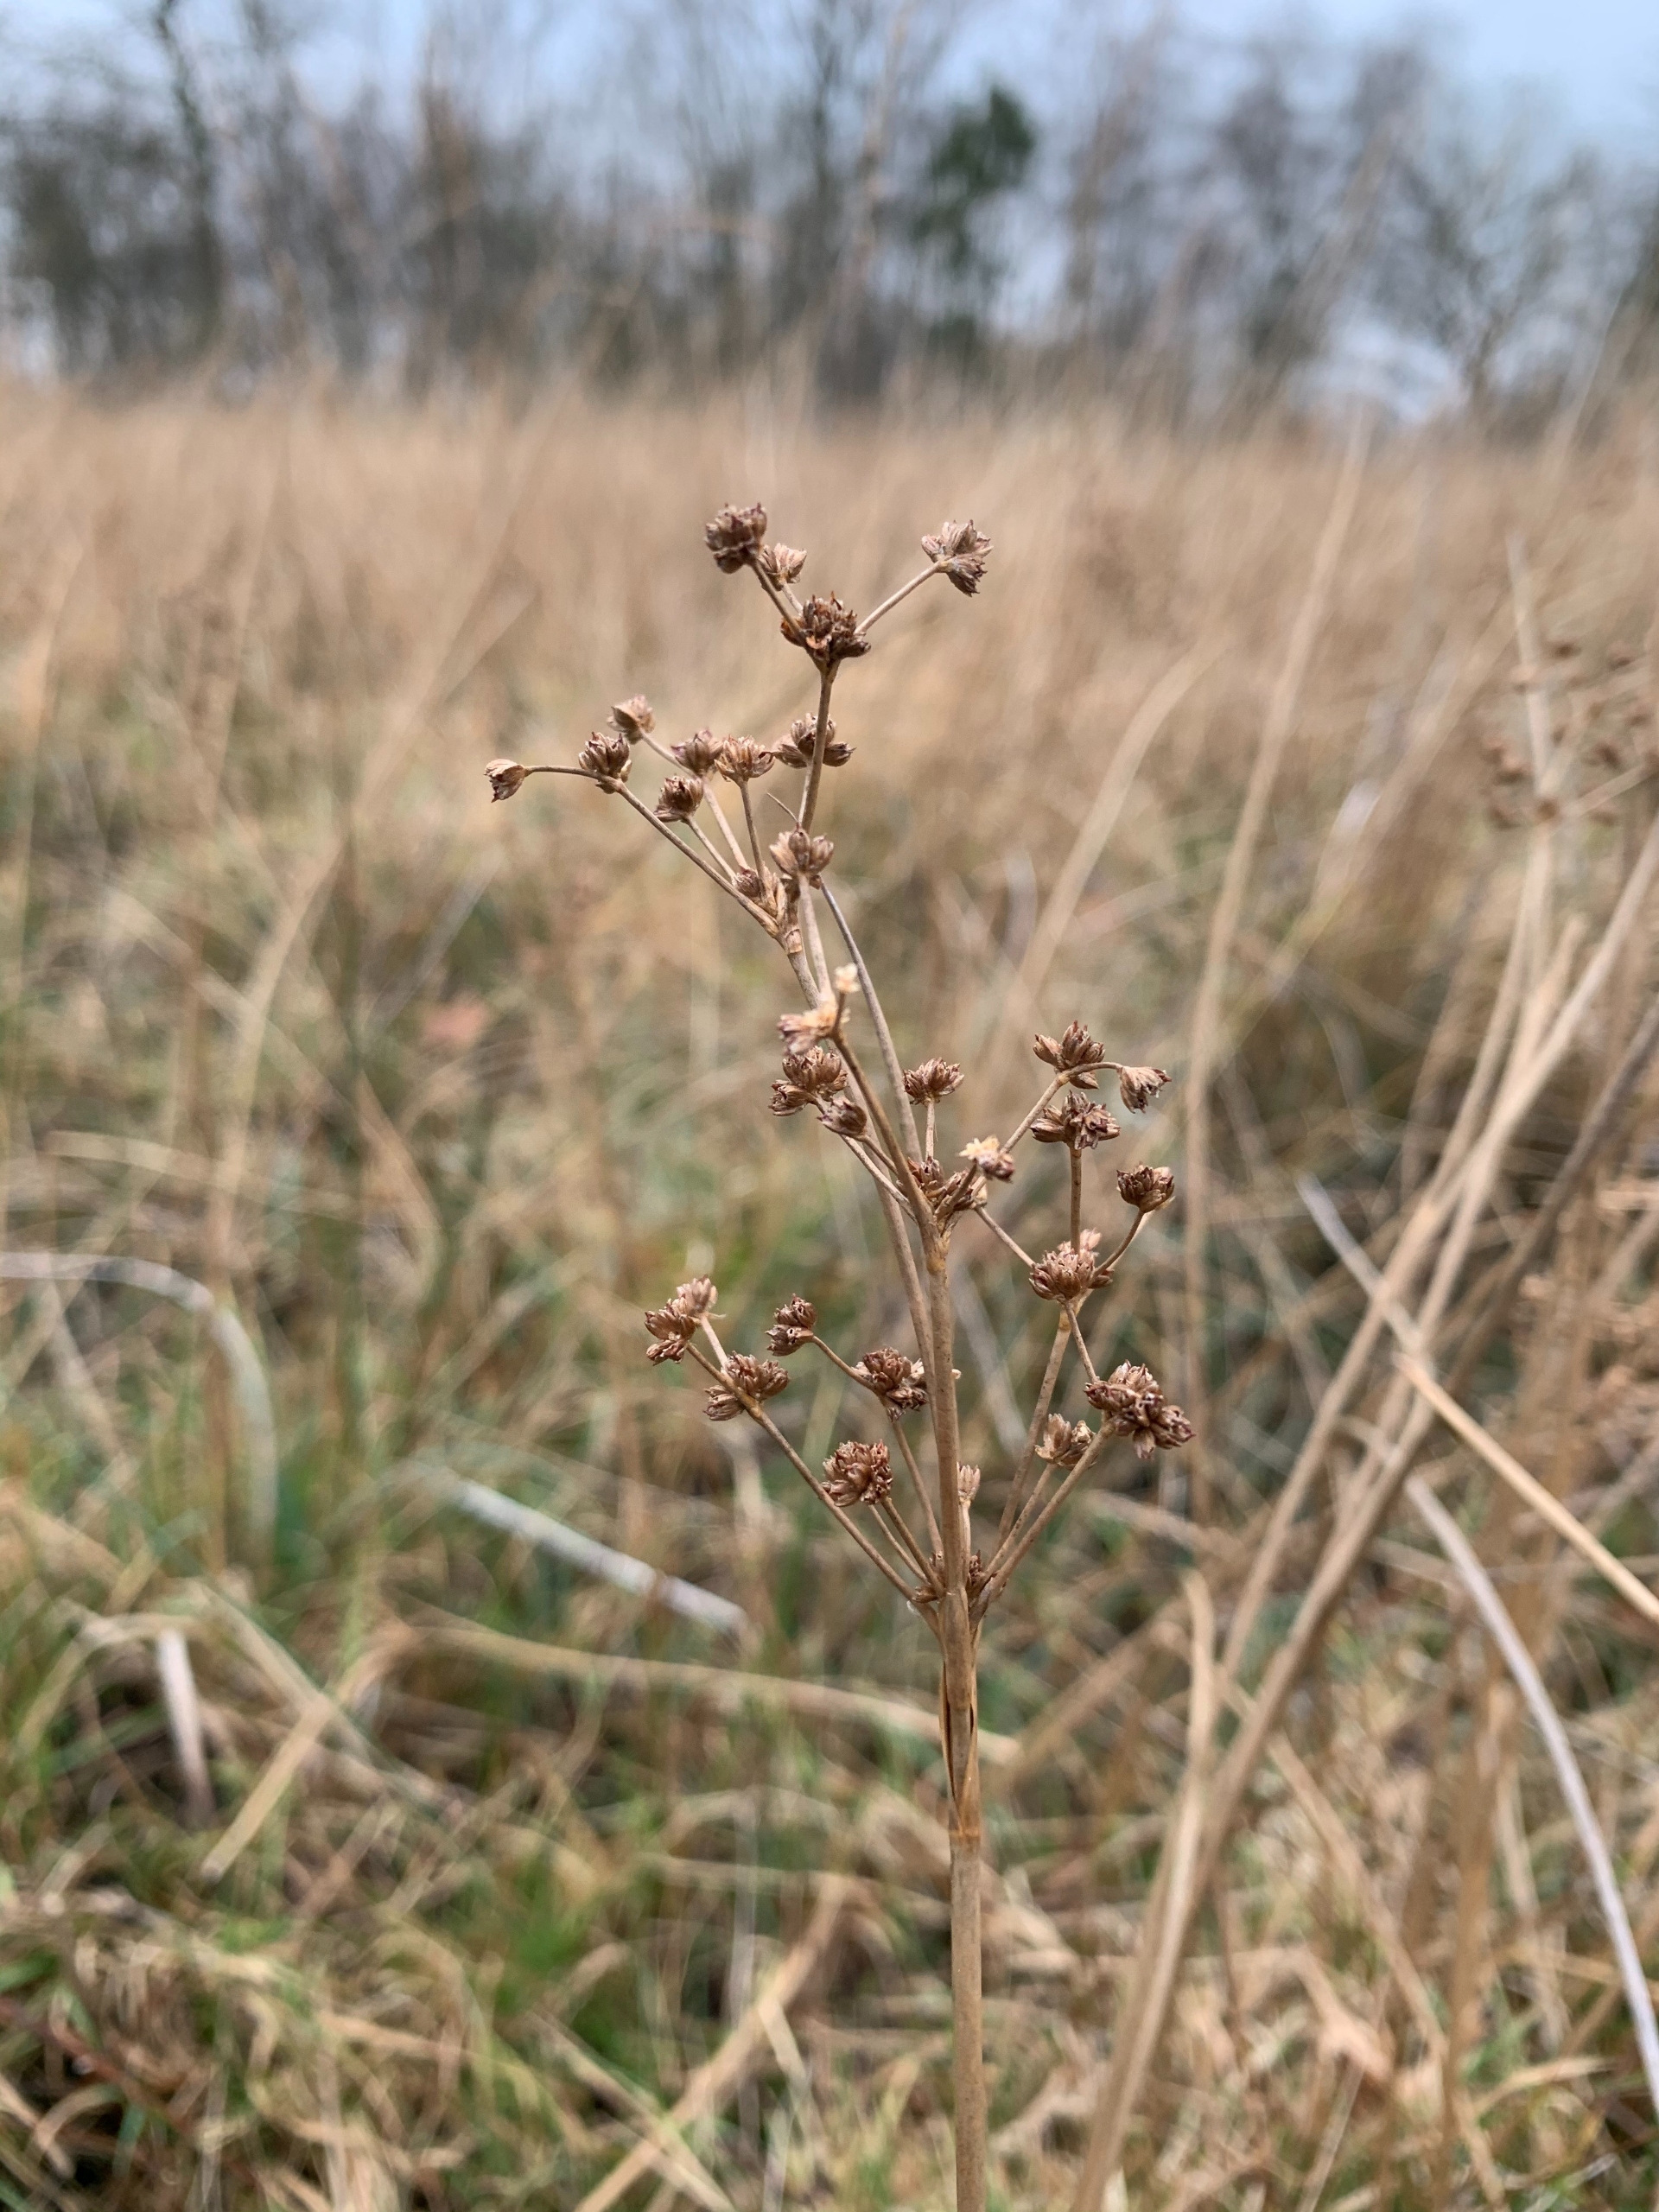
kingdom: Plantae
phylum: Tracheophyta
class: Liliopsida
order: Poales
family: Juncaceae
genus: Juncus
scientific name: Juncus subnodulosus
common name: Butblomstret siv
